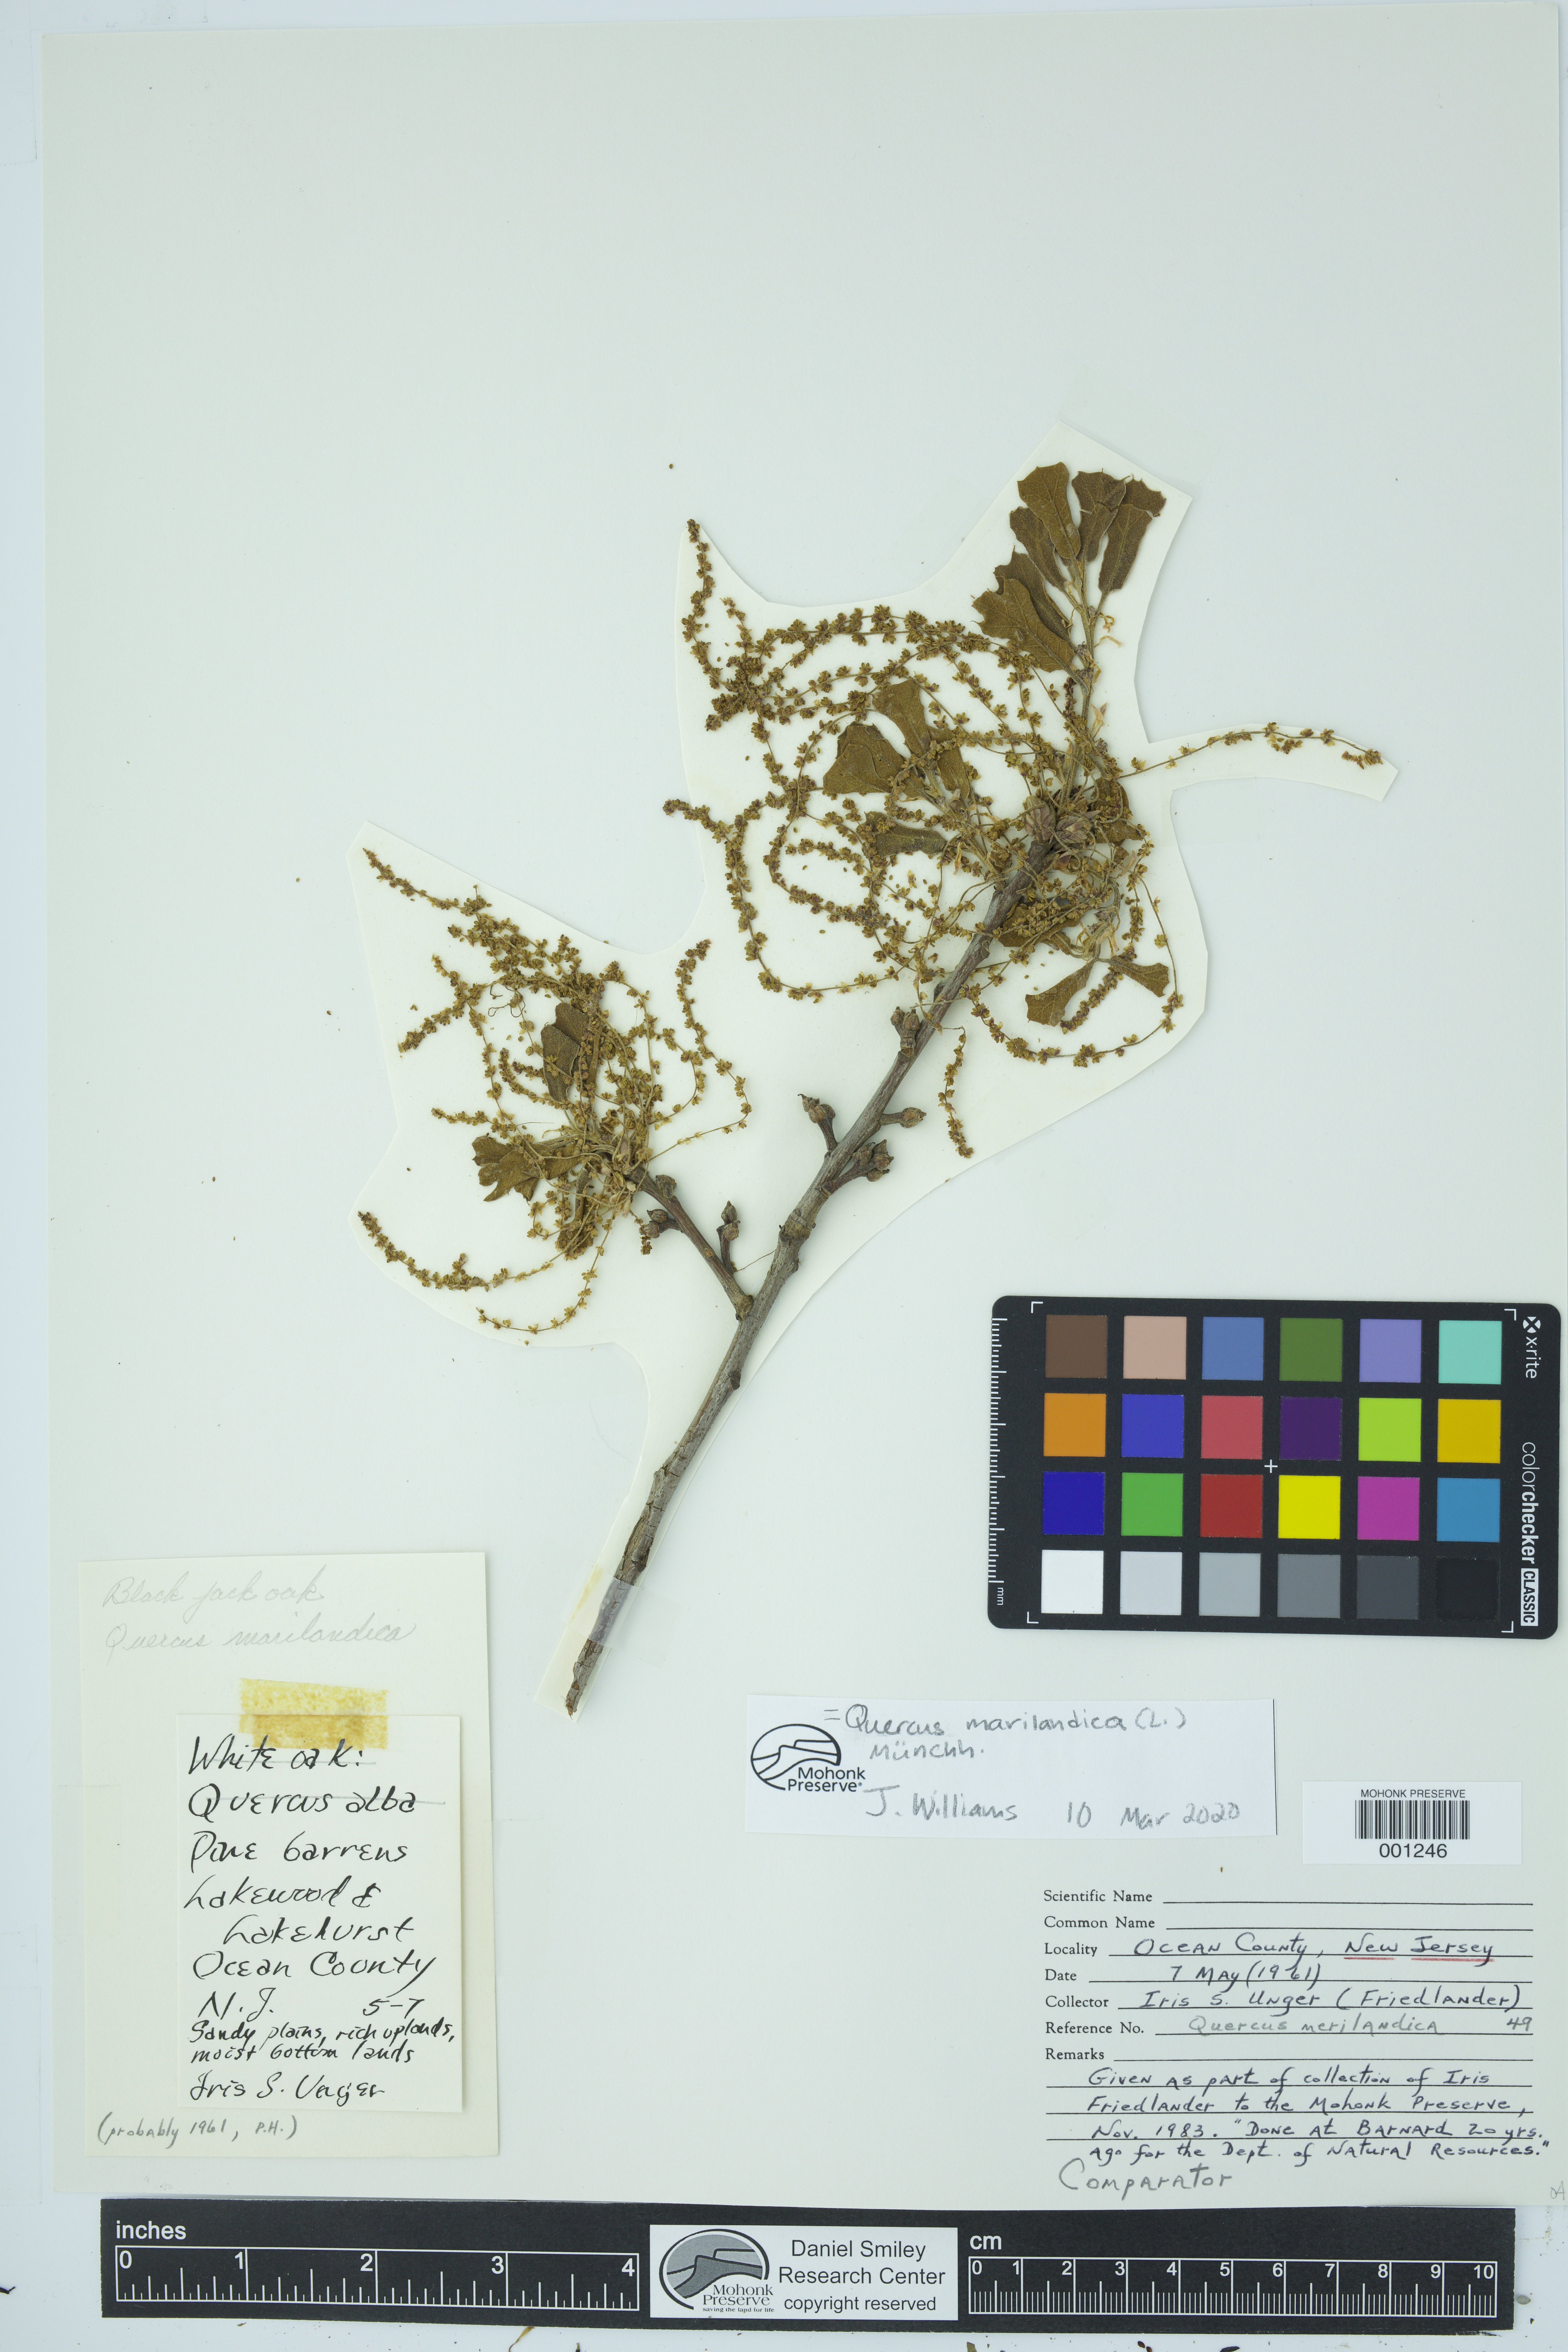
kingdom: Plantae
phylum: Tracheophyta
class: Magnoliopsida
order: Fagales
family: Fagaceae
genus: Quercus
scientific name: Quercus marilandica
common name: Blackjack oak
